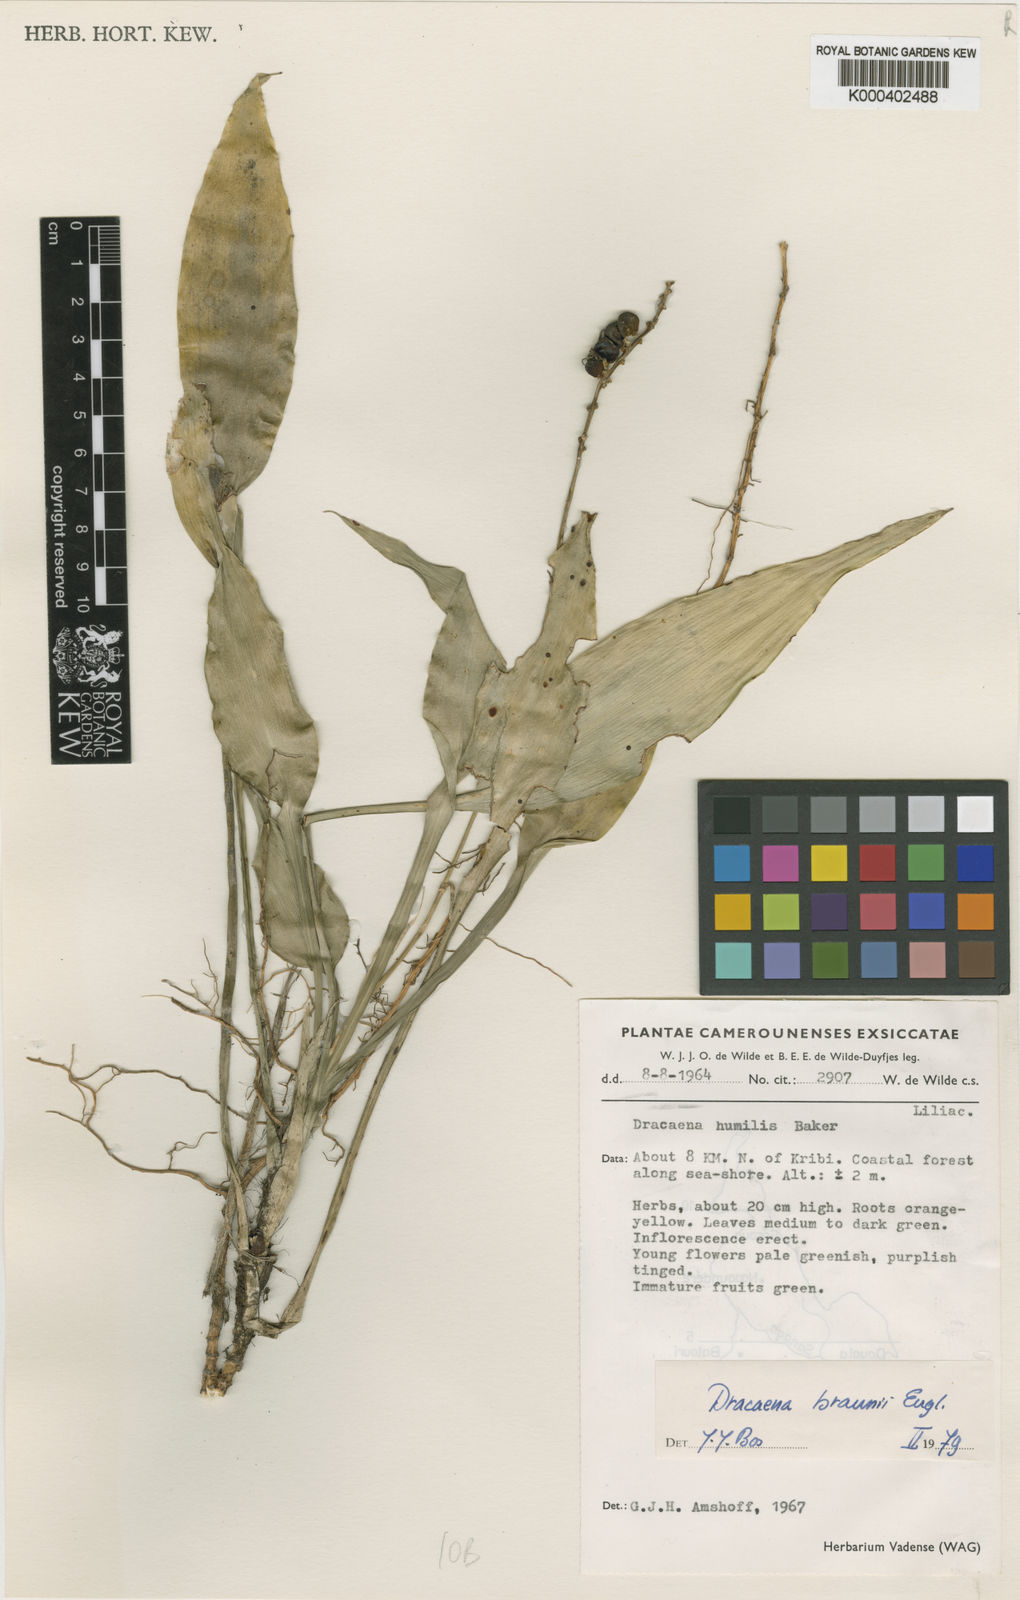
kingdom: Plantae
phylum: Tracheophyta
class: Liliopsida
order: Asparagales
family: Asparagaceae
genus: Dracaena
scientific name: Dracaena braunii
